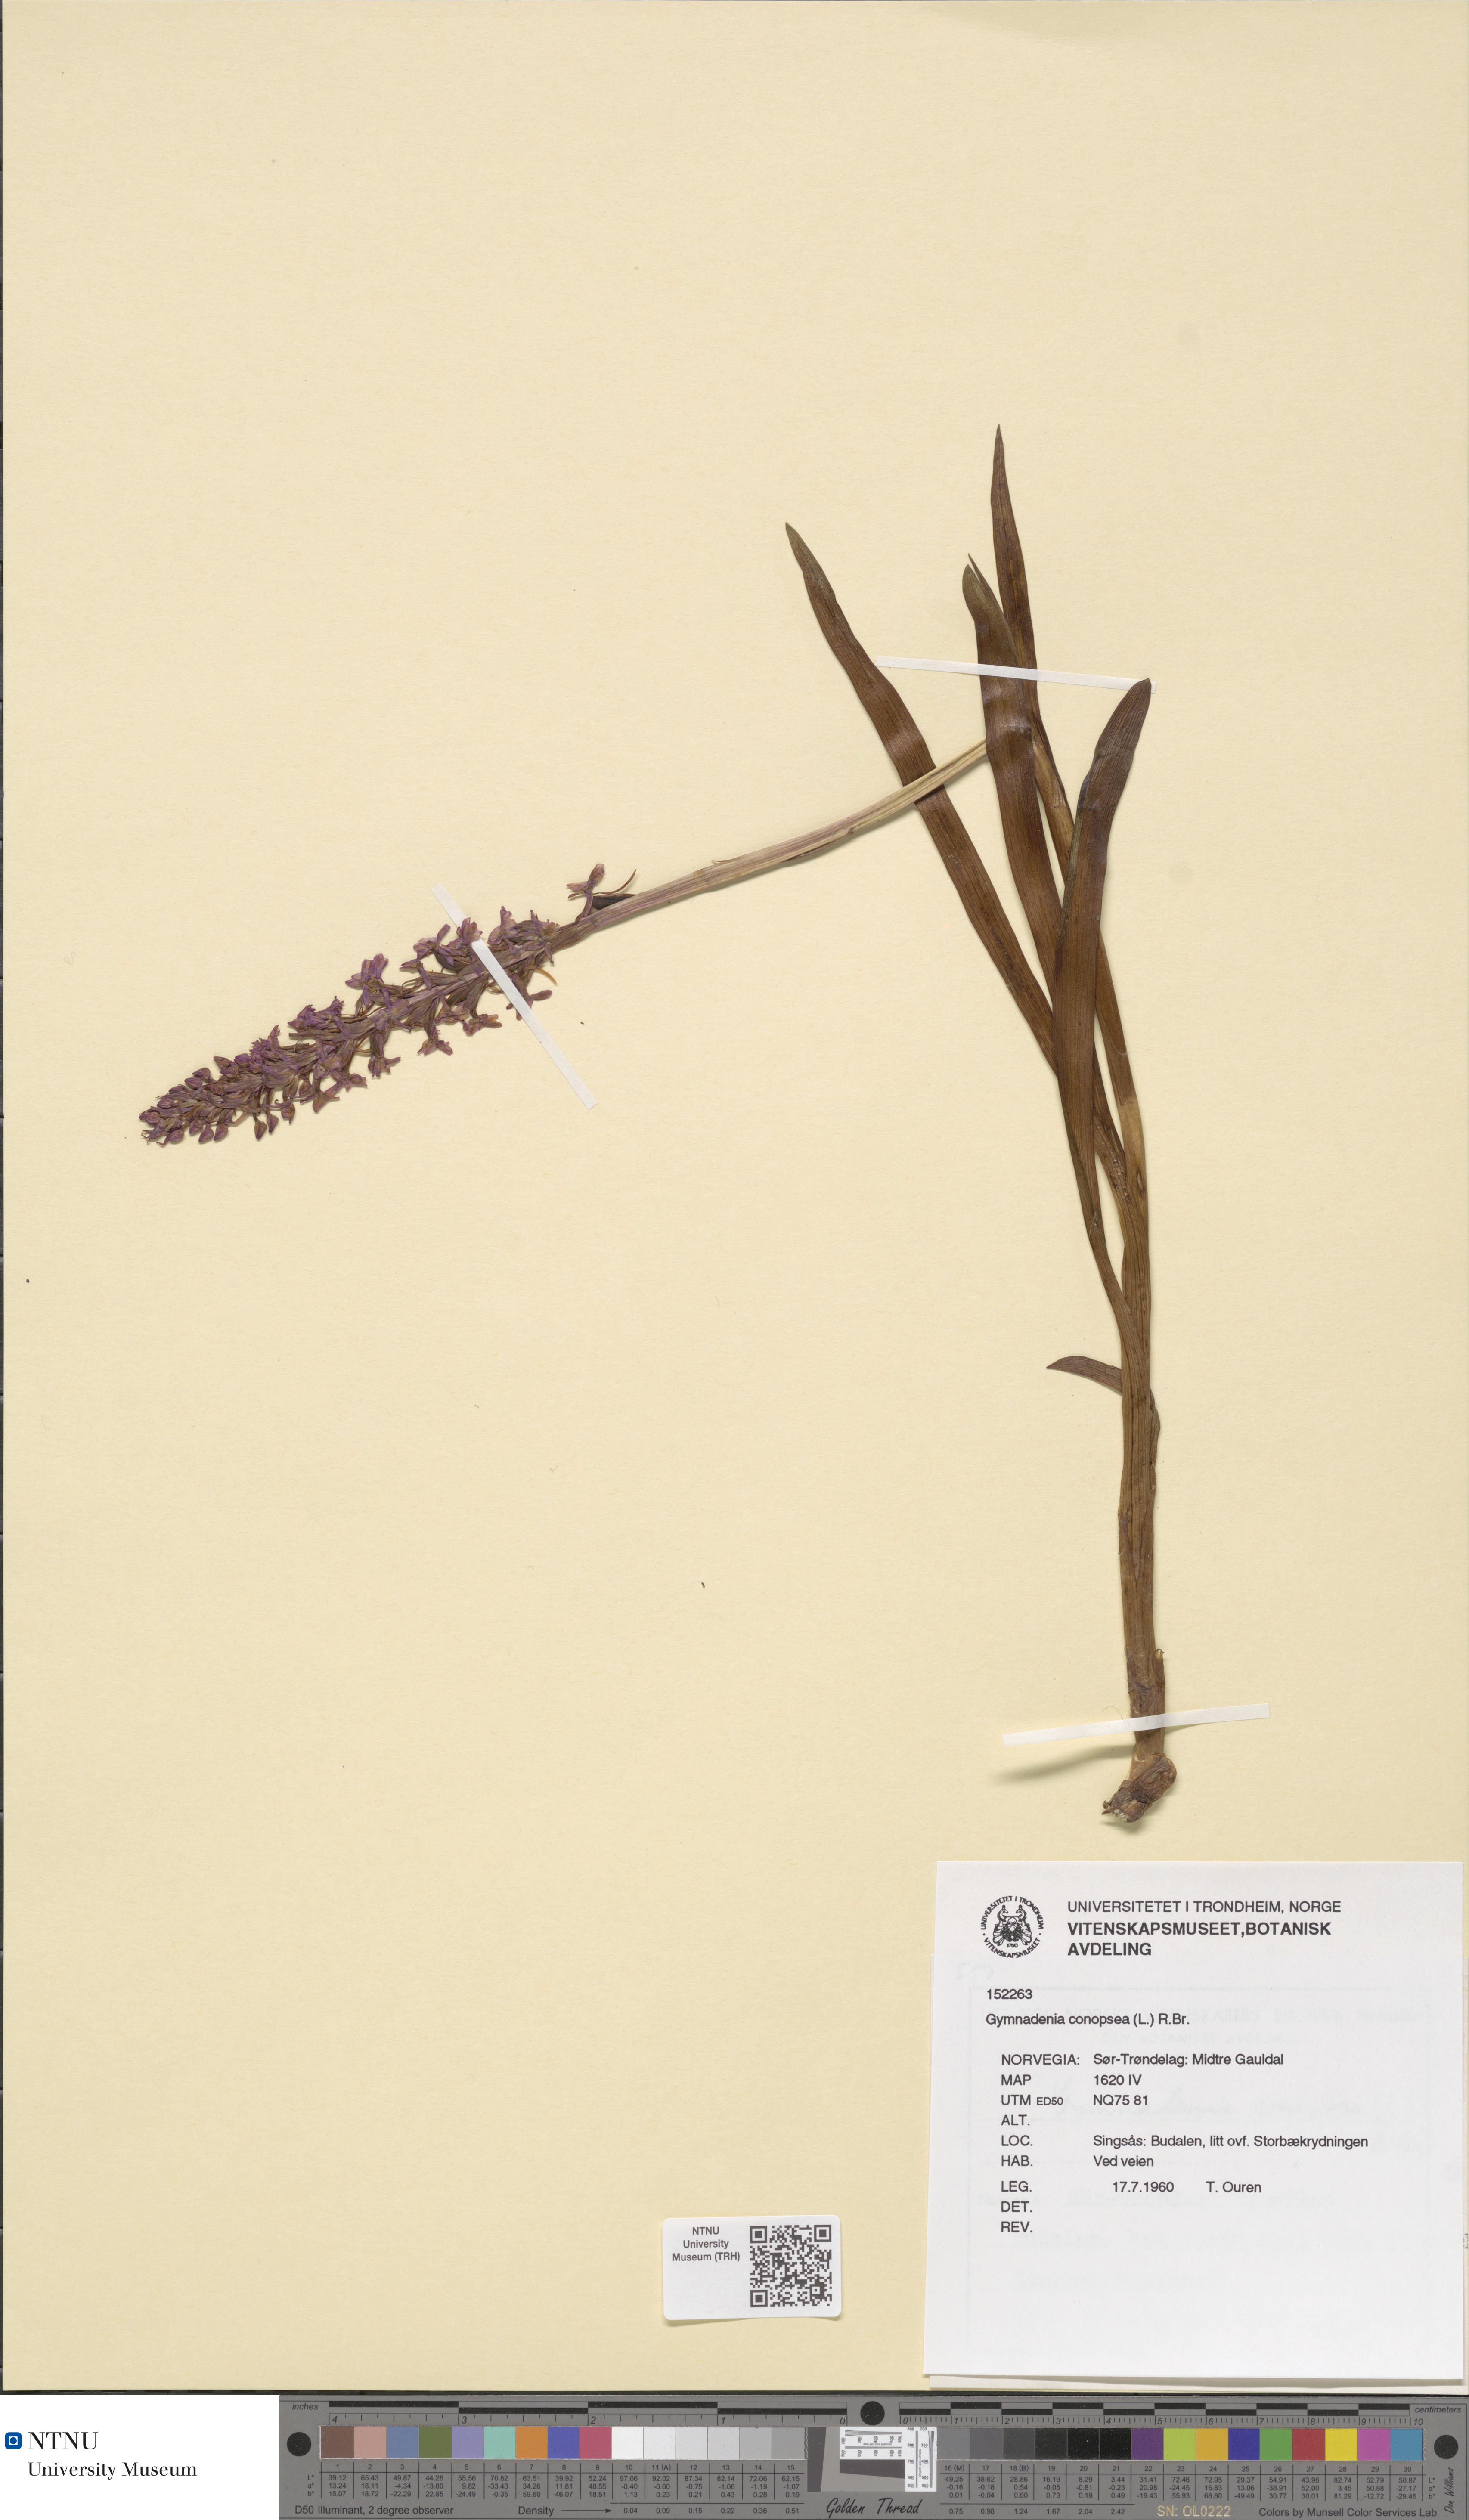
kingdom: Plantae
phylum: Tracheophyta
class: Liliopsida
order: Asparagales
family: Orchidaceae
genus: Gymnadenia
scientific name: Gymnadenia conopsea
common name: Fragrant orchid
